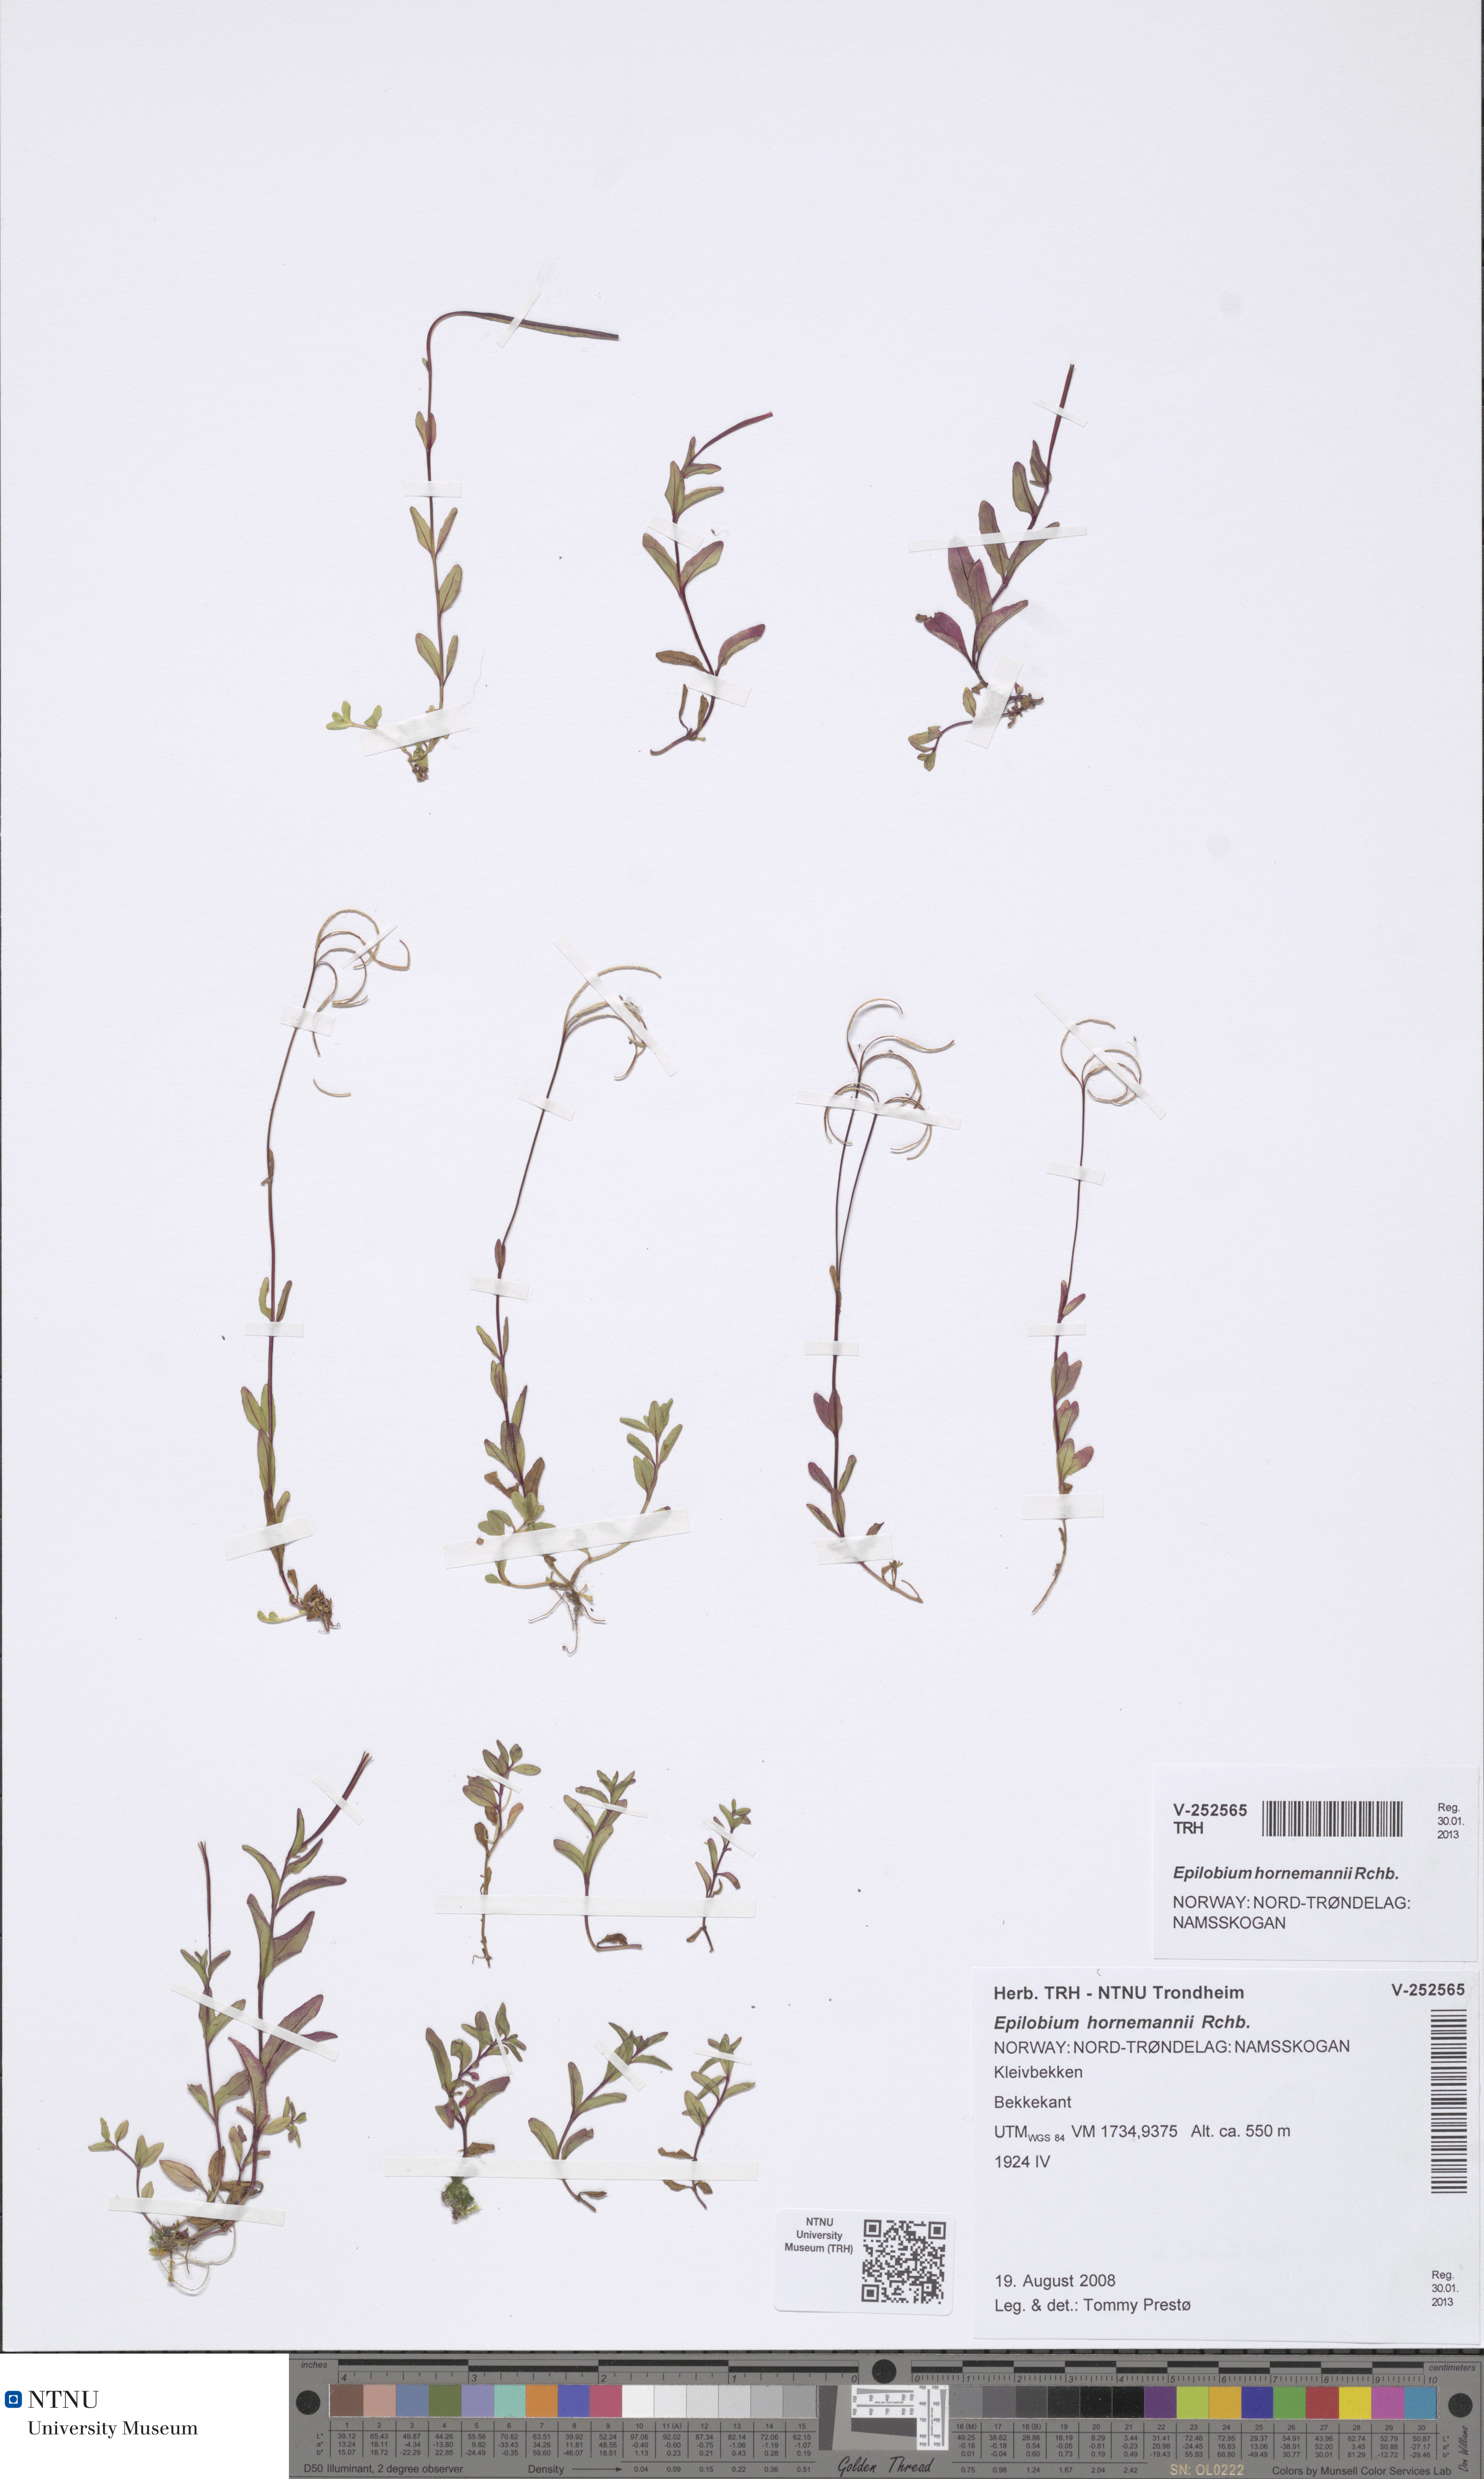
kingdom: Plantae
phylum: Tracheophyta
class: Magnoliopsida
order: Myrtales
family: Onagraceae
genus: Epilobium
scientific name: Epilobium hornemannii
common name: Hornemann's willowherb
